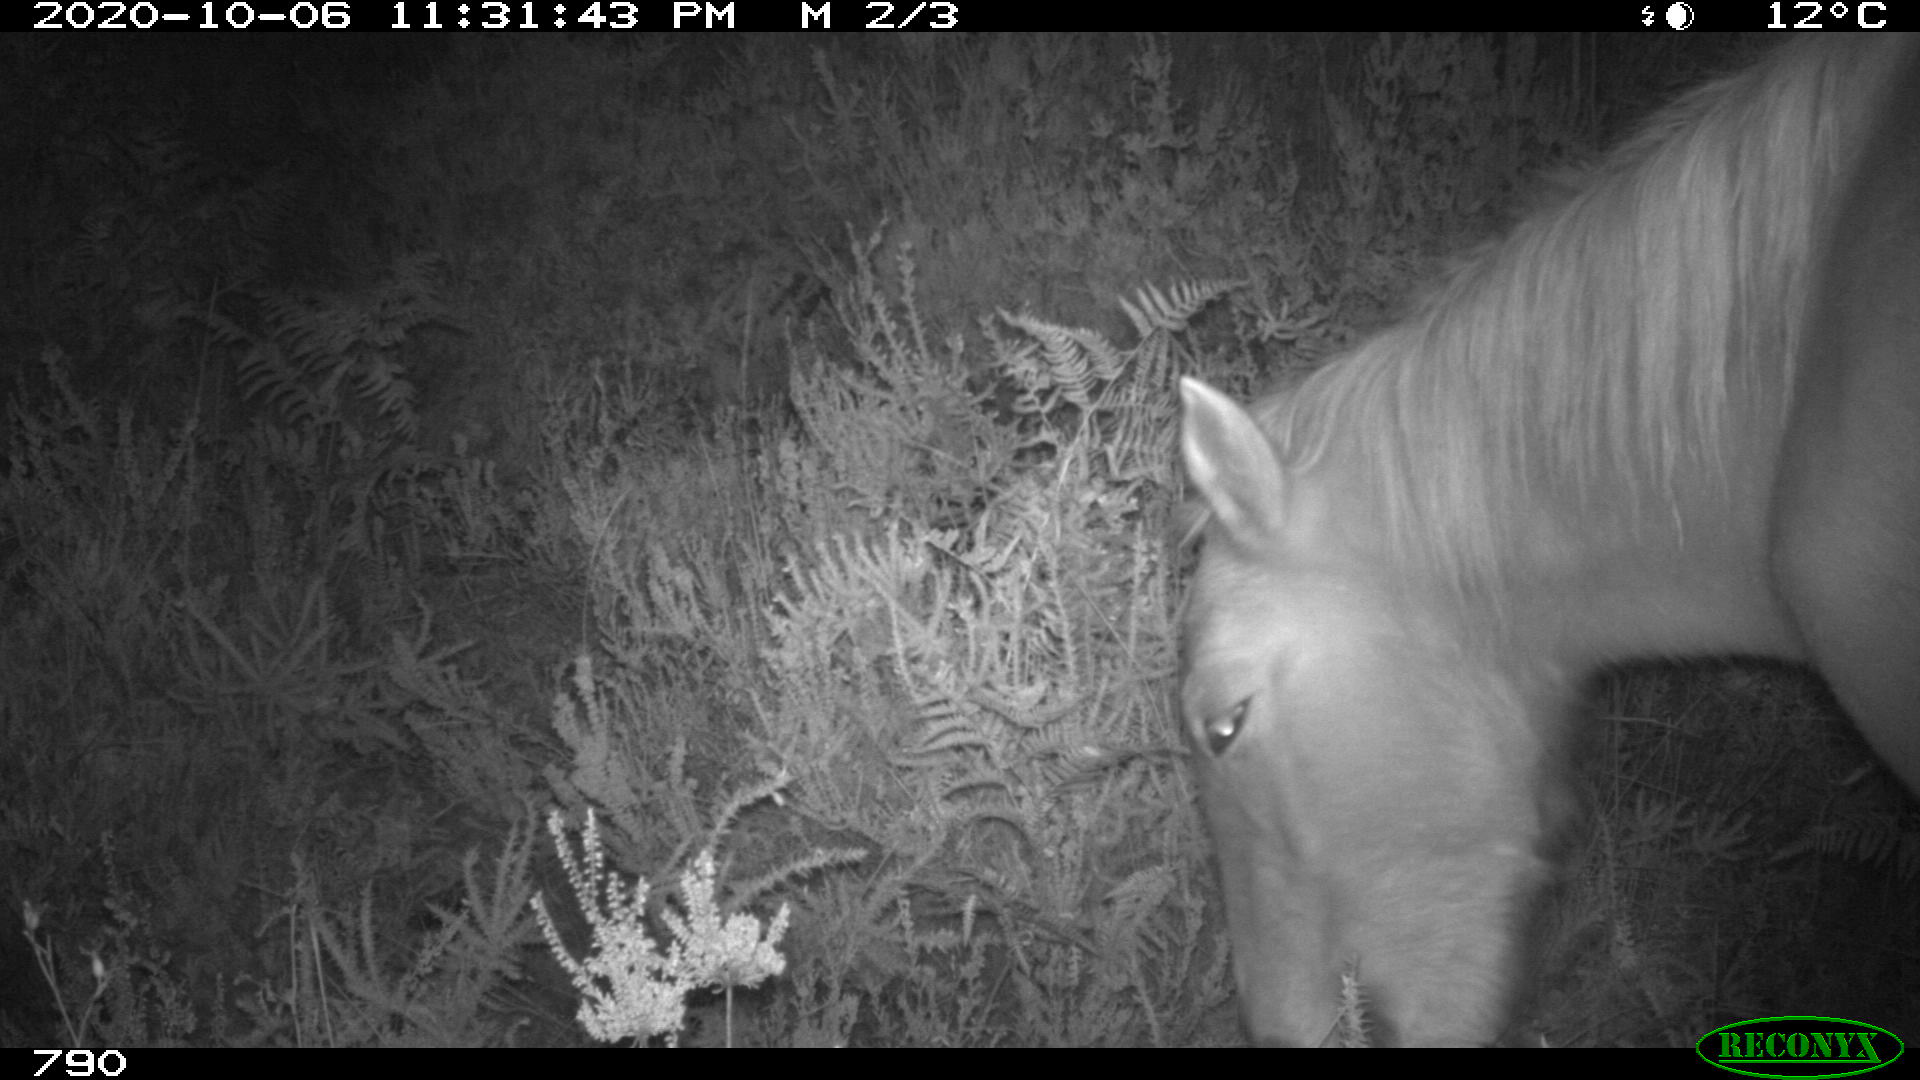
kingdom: Animalia
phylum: Chordata
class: Mammalia
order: Perissodactyla
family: Equidae
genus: Equus
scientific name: Equus caballus
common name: Horse
